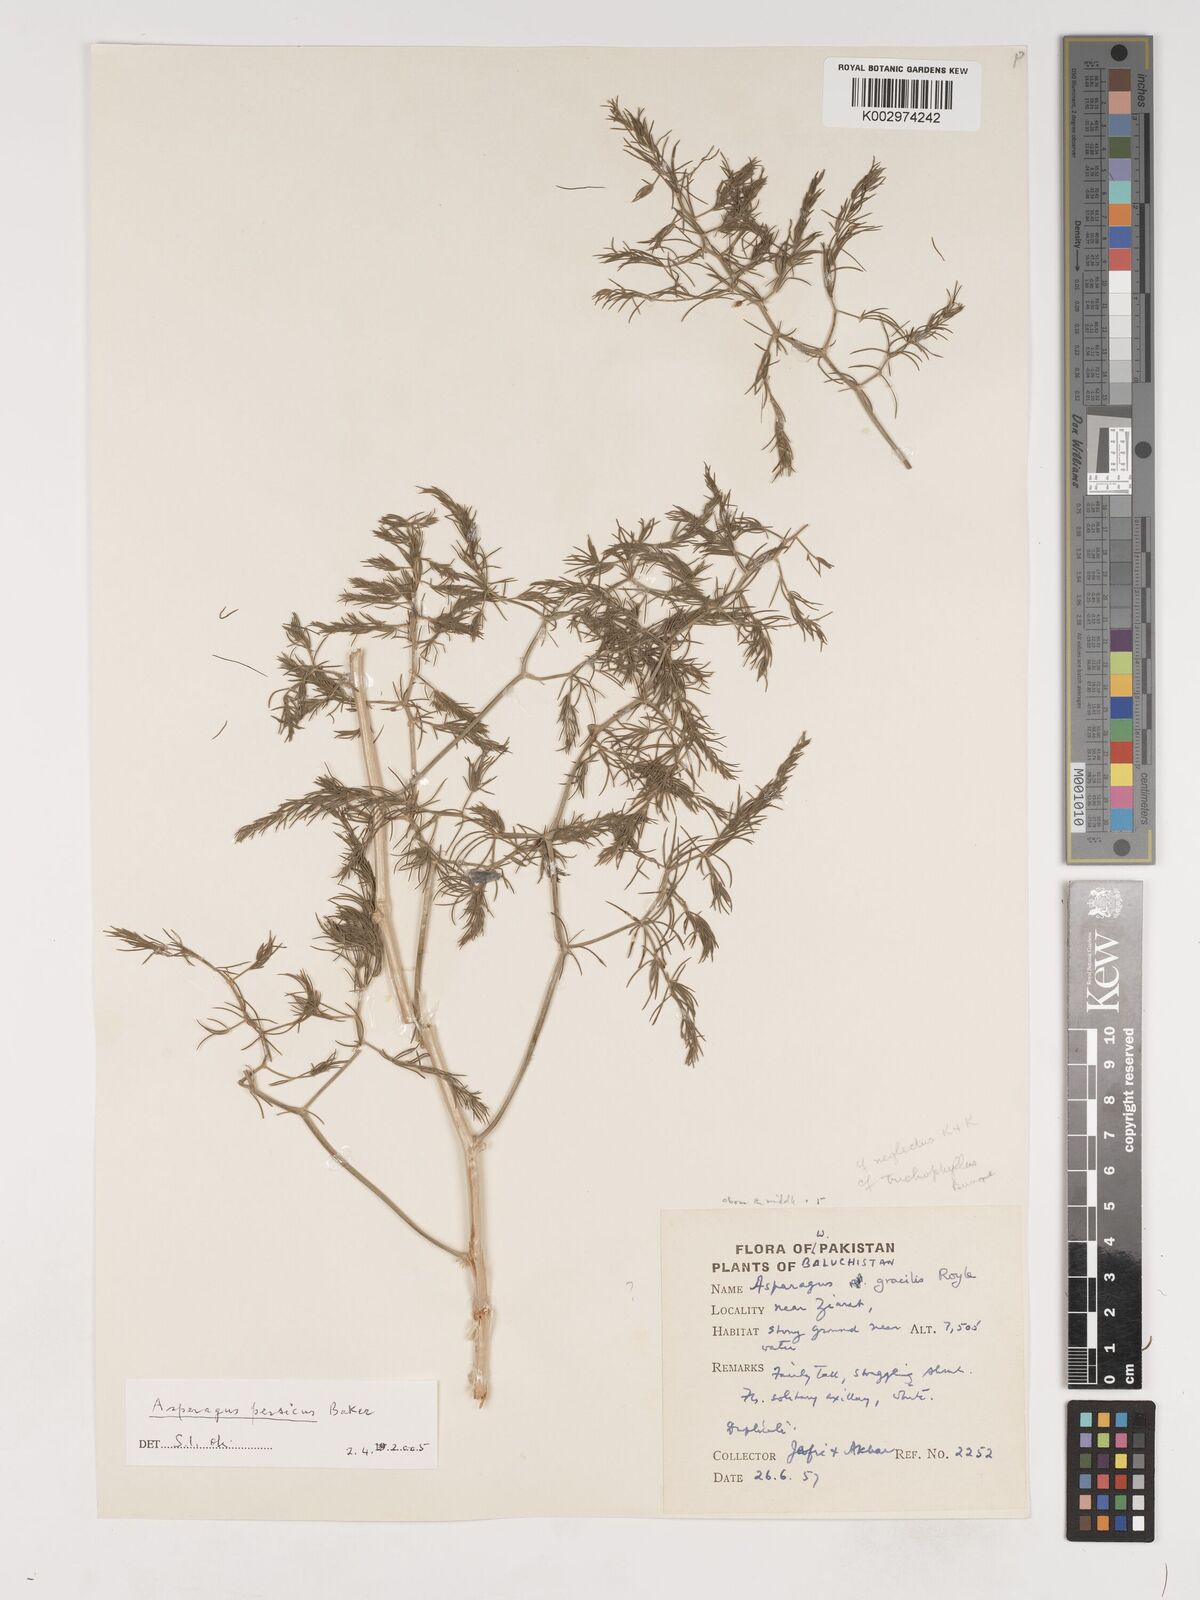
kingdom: Plantae
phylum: Tracheophyta
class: Liliopsida
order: Asparagales
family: Asparagaceae
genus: Asparagus
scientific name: Asparagus persicus
